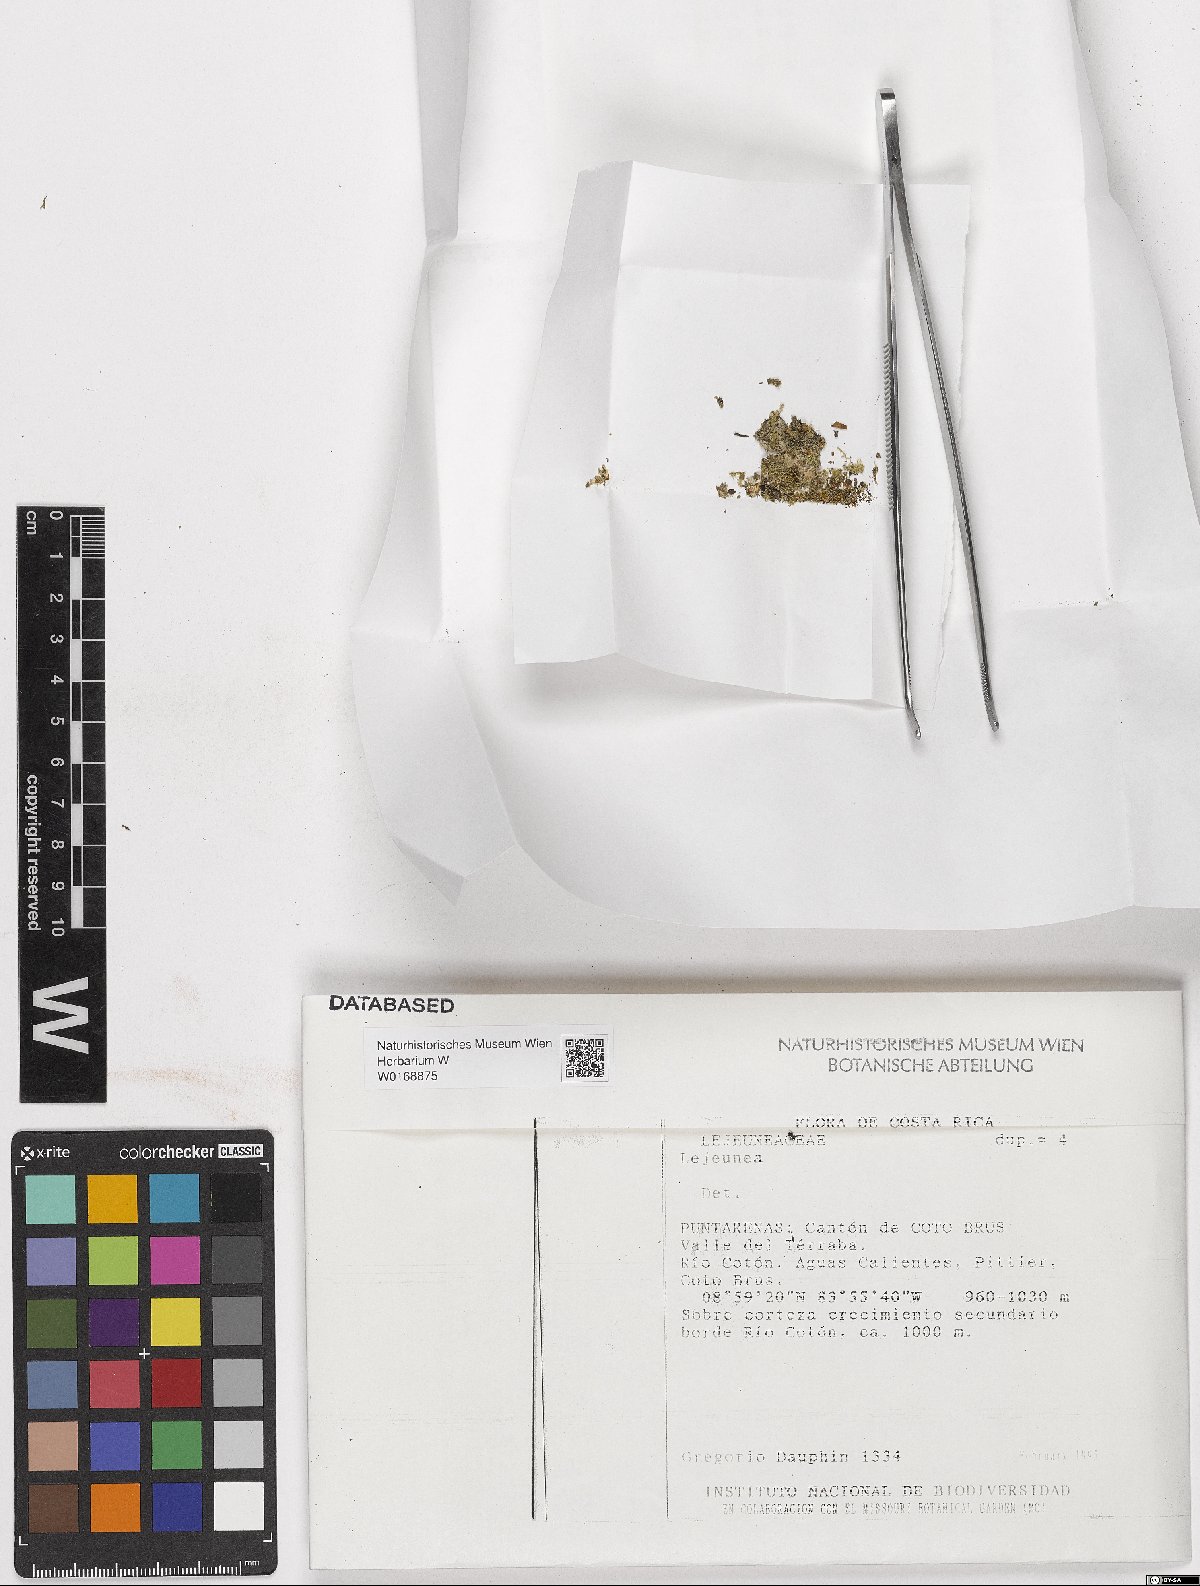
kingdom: Plantae
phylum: Marchantiophyta
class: Jungermanniopsida
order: Porellales
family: Lejeuneaceae
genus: Lejeunea
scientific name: Lejeunea
